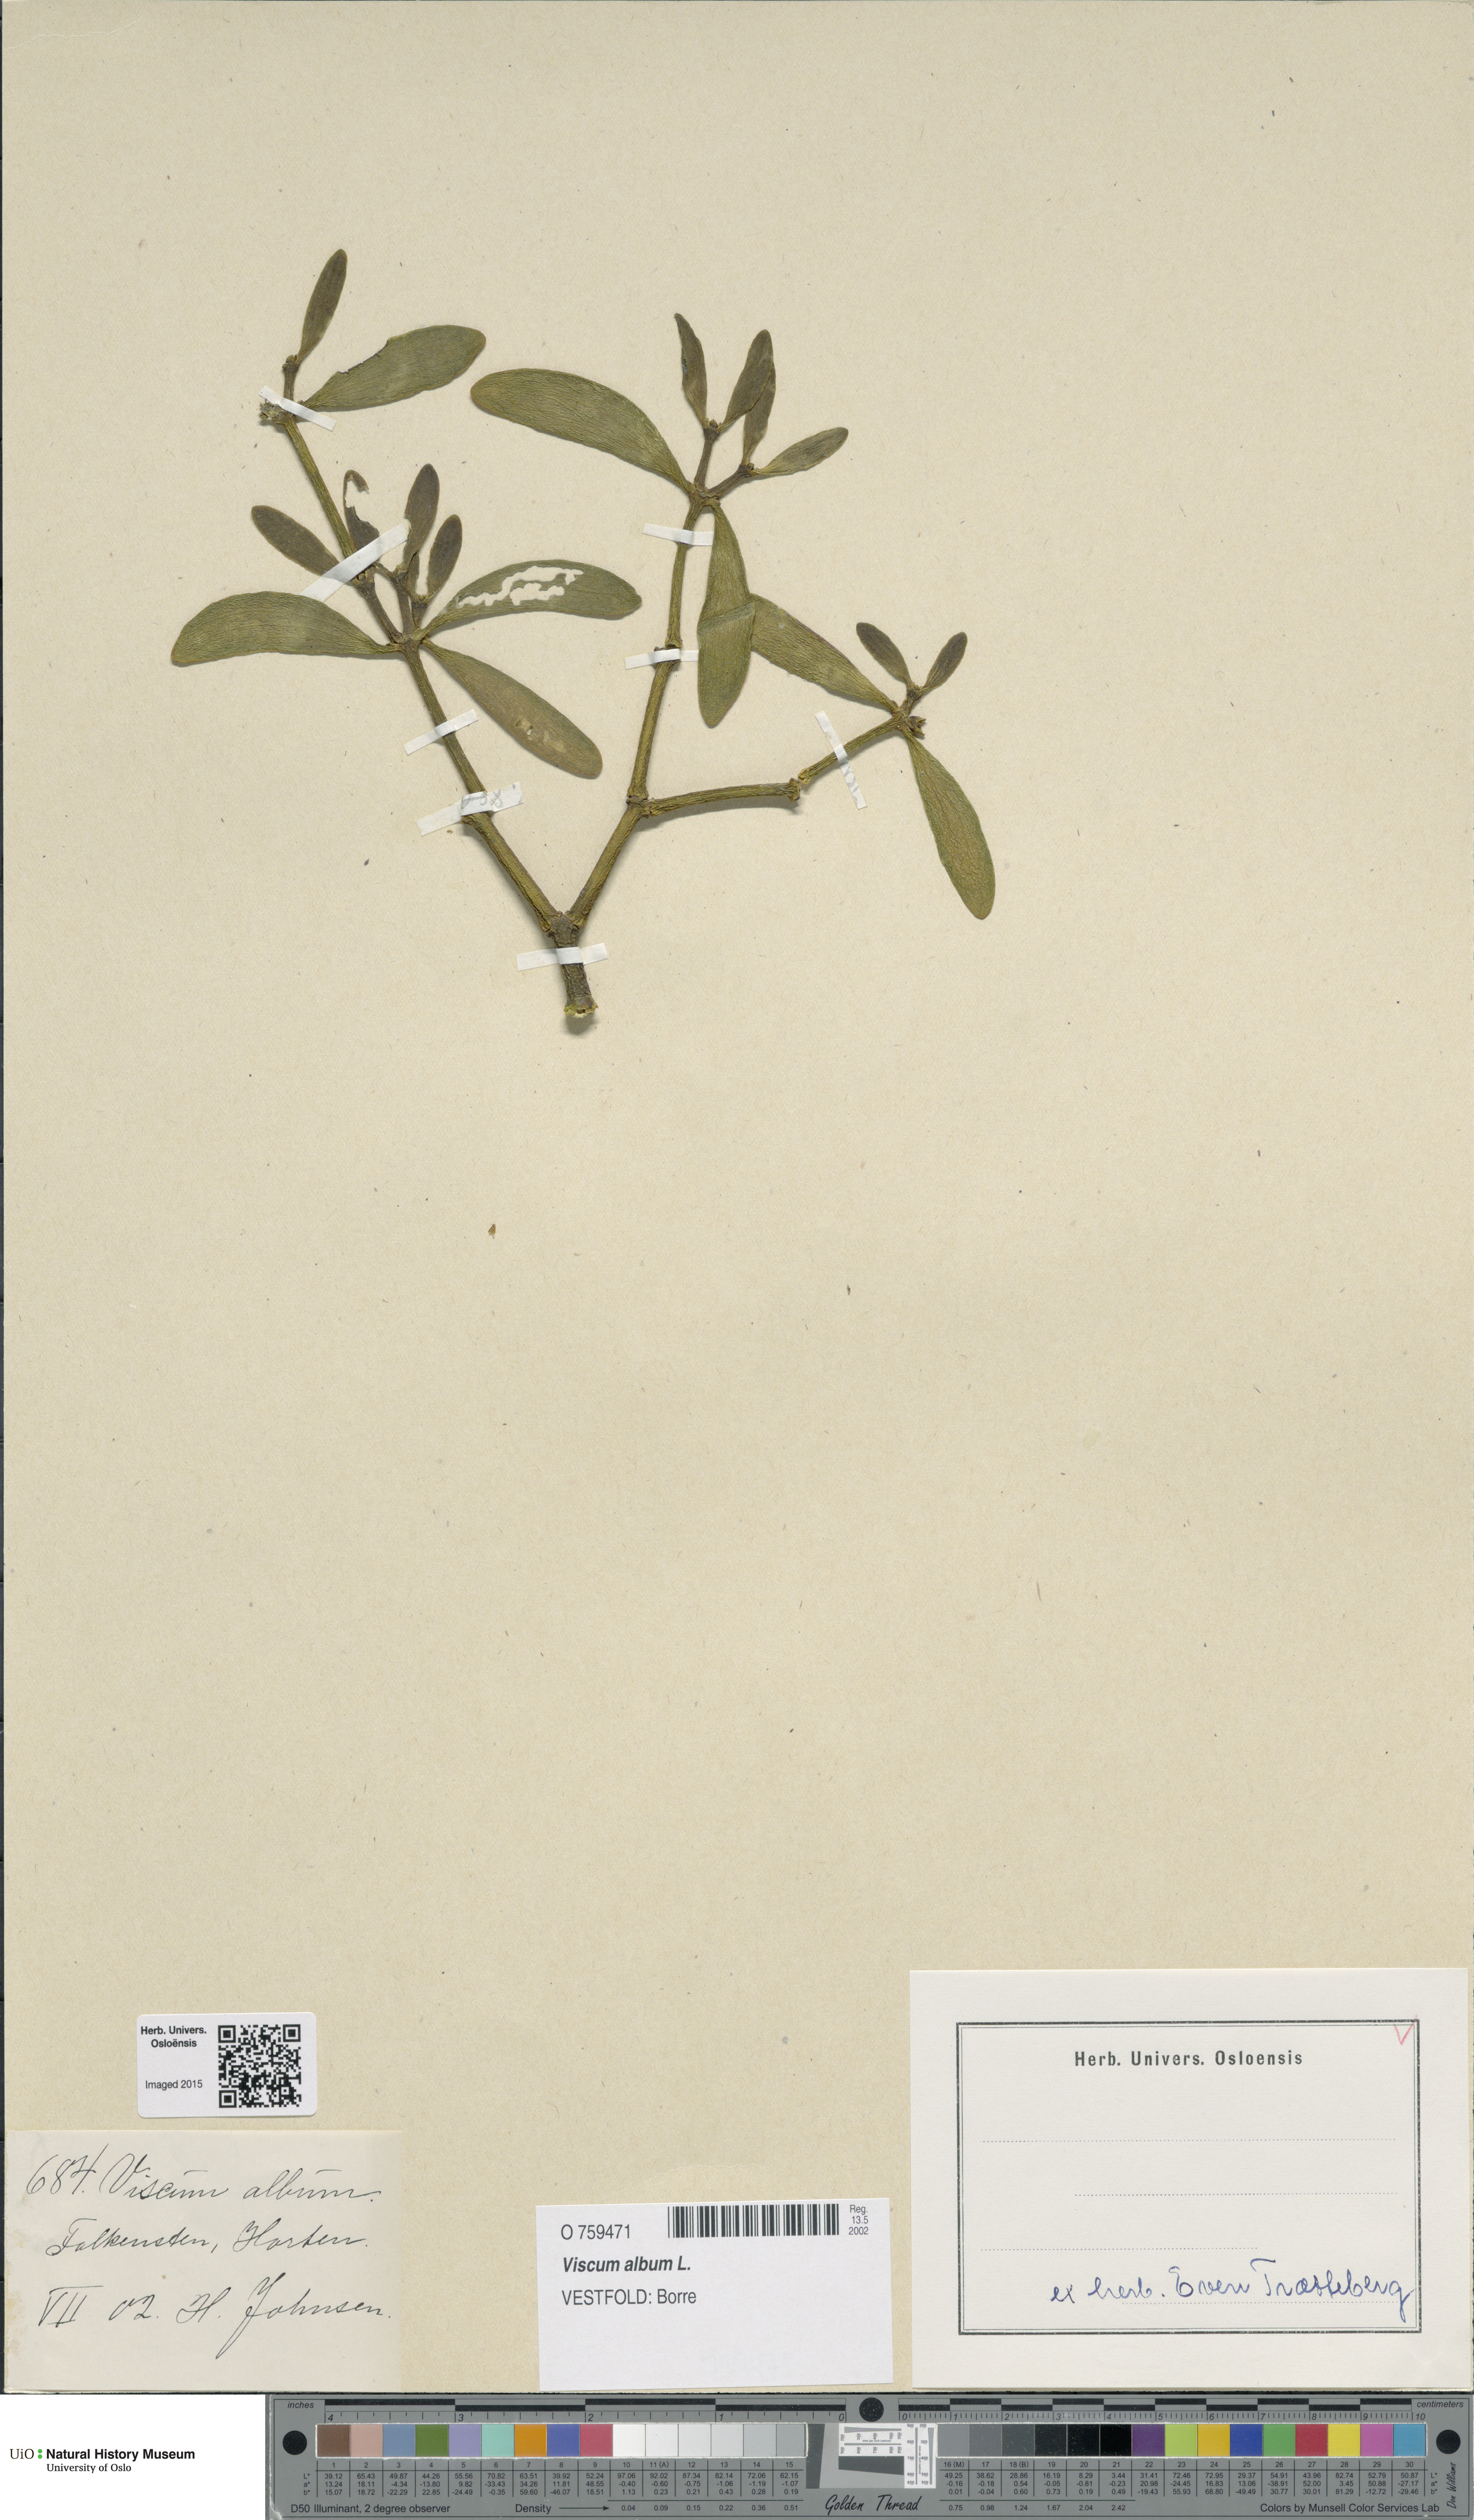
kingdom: Plantae
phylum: Tracheophyta
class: Magnoliopsida
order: Santalales
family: Viscaceae
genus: Viscum
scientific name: Viscum album
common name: Mistletoe
